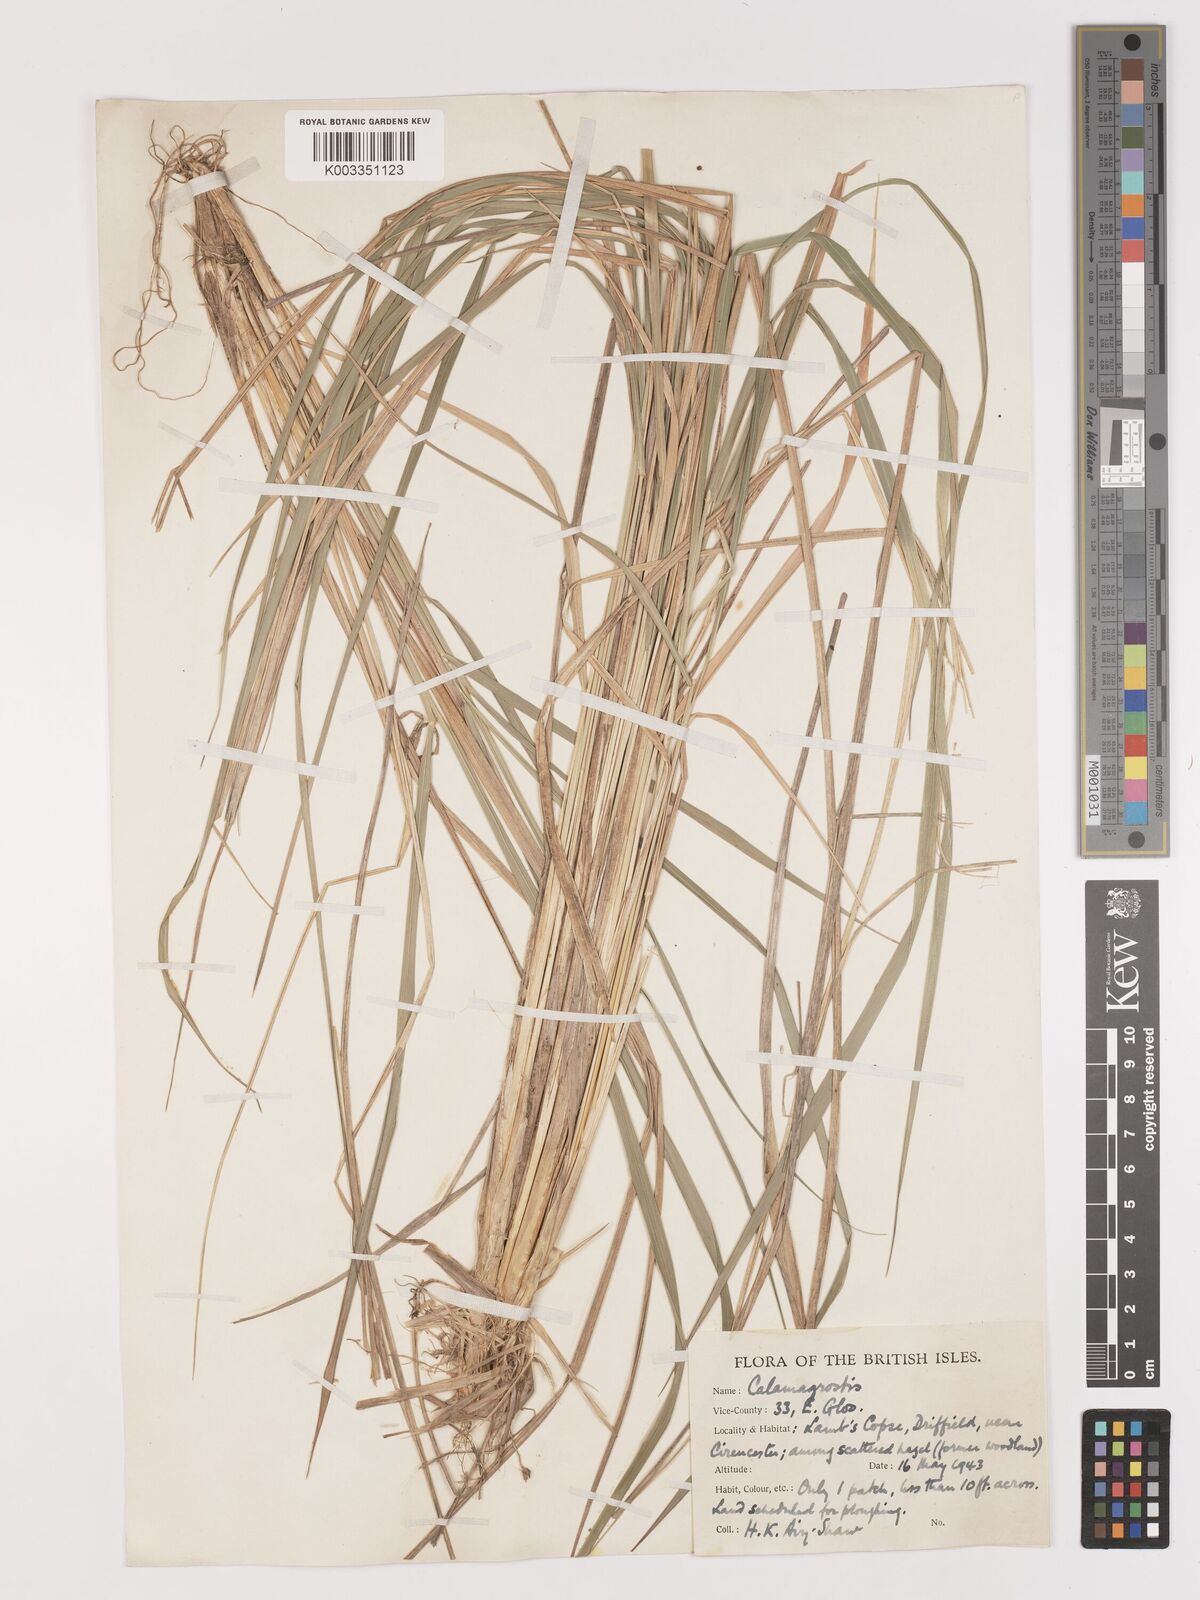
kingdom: Plantae
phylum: Tracheophyta
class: Liliopsida
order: Poales
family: Poaceae
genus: Calamagrostis
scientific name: Calamagrostis
